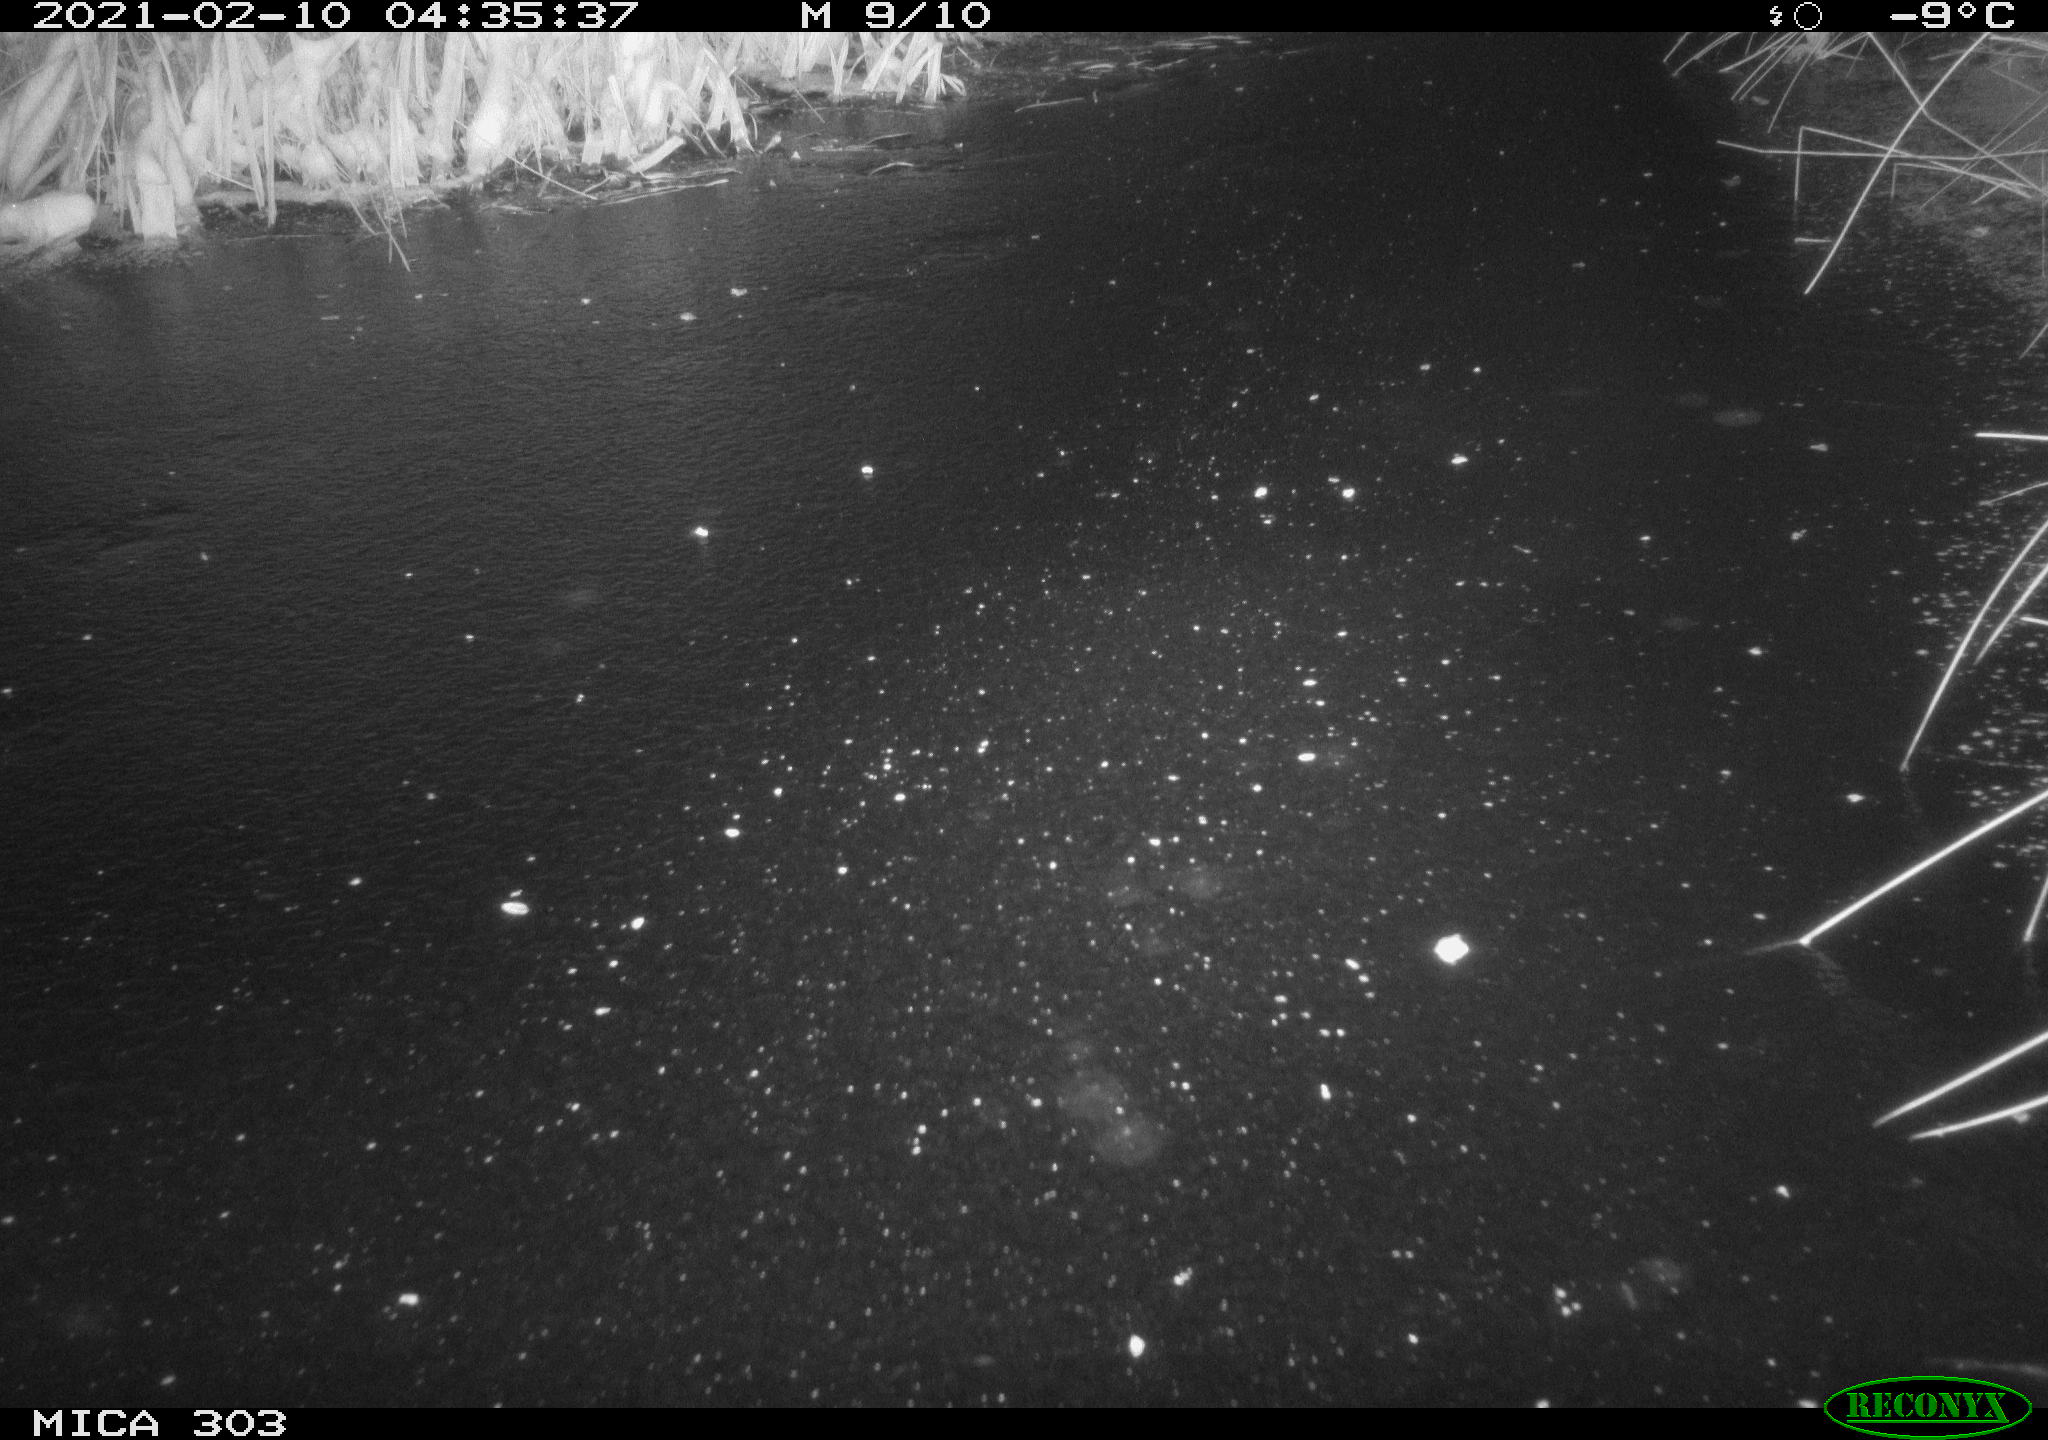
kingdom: Animalia
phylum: Chordata
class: Mammalia
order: Carnivora
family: Canidae
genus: Vulpes
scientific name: Vulpes vulpes
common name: Red fox
